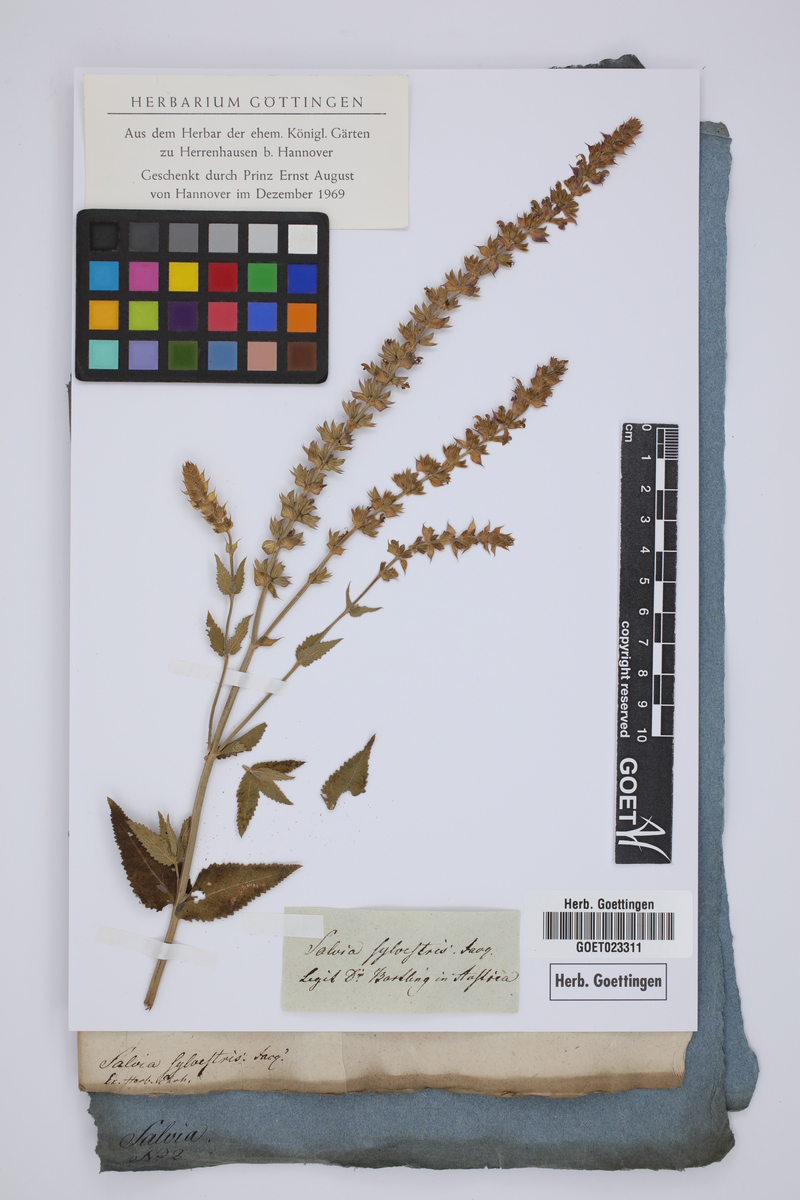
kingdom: Plantae
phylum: Tracheophyta
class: Magnoliopsida
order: Lamiales
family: Lamiaceae
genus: Salvia
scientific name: Salvia sylvestris
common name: Woodland sage
